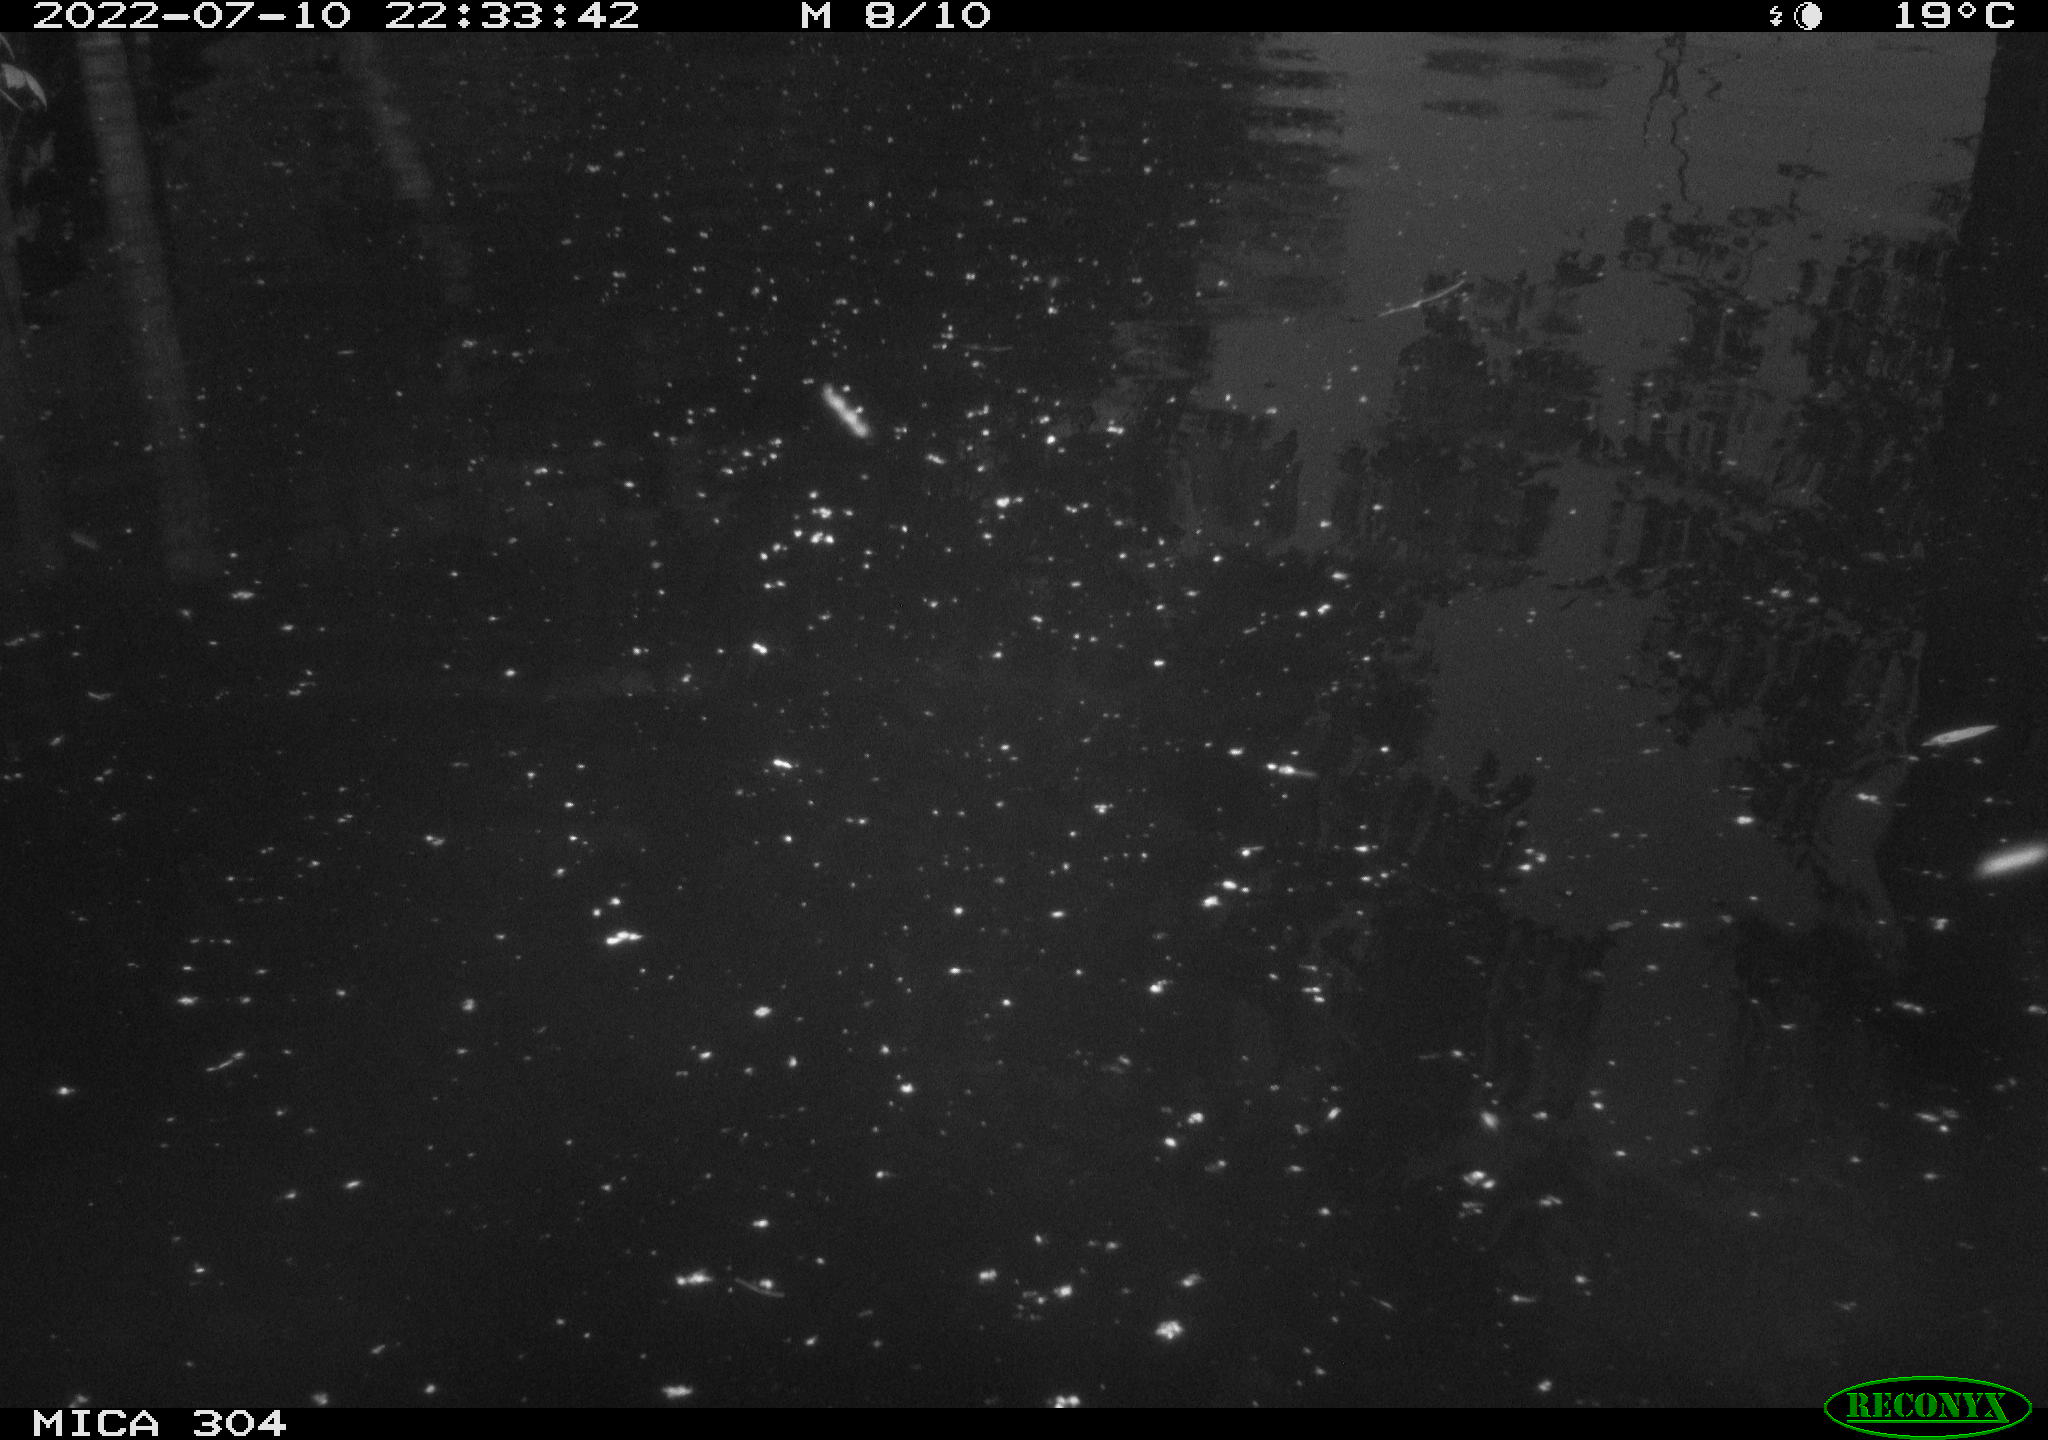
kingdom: Animalia
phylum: Chordata
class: Aves
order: Anseriformes
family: Anatidae
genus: Anas
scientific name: Anas platyrhynchos
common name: Mallard
